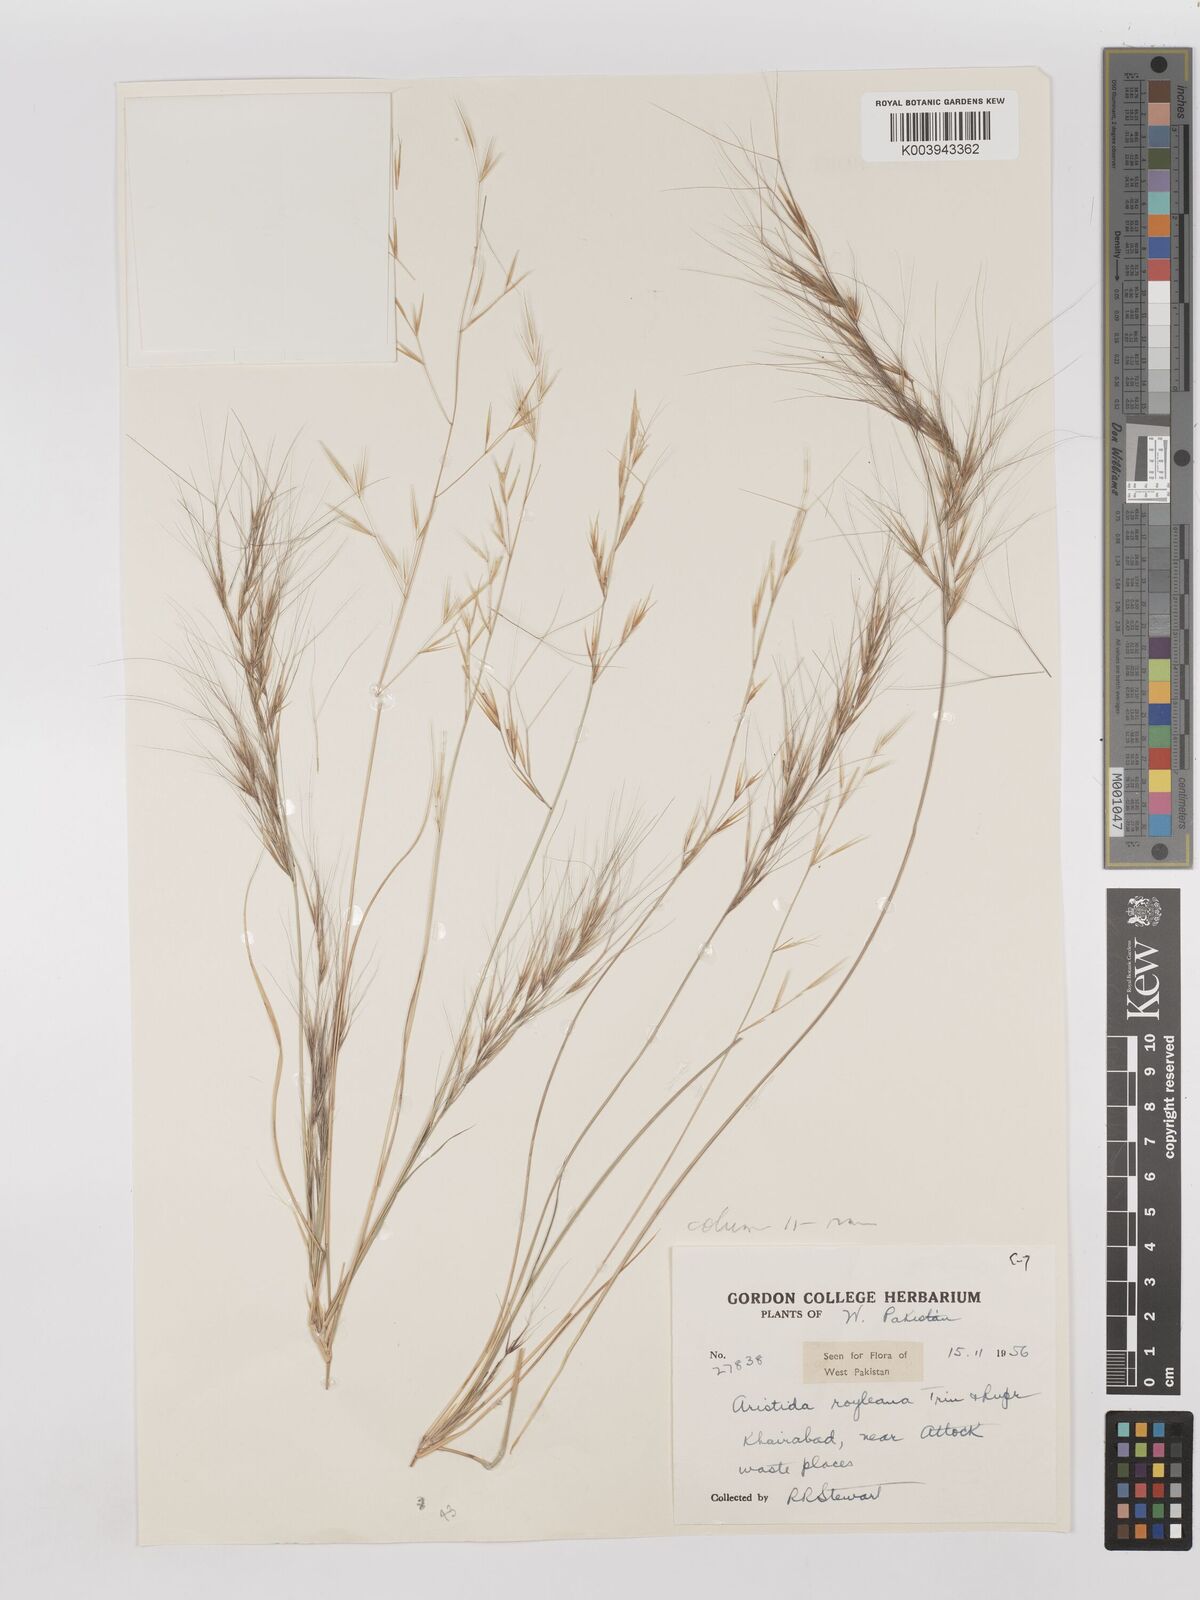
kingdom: Plantae
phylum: Tracheophyta
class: Liliopsida
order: Poales
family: Poaceae
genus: Aristida
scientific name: Aristida funiculata
